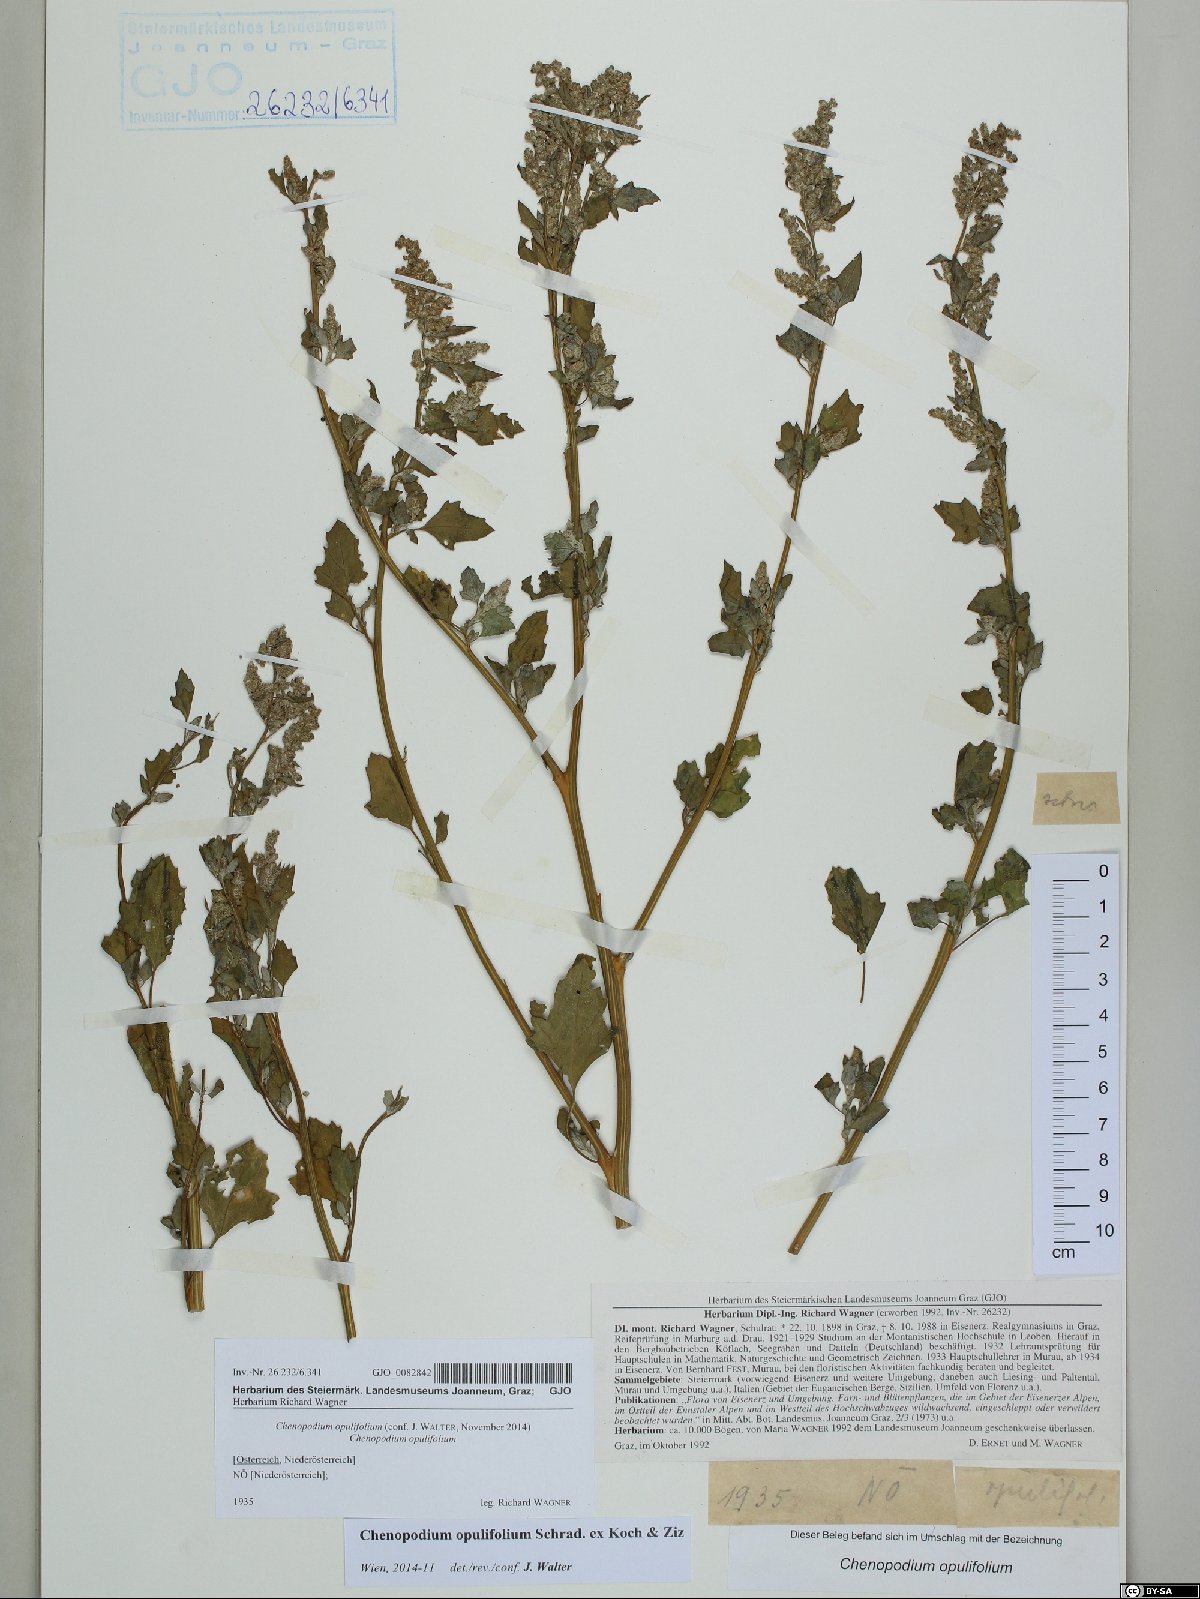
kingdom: Plantae
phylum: Tracheophyta
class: Magnoliopsida
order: Caryophyllales
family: Amaranthaceae
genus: Chenopodium
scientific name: Chenopodium opulifolium
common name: Grey goosefoot
